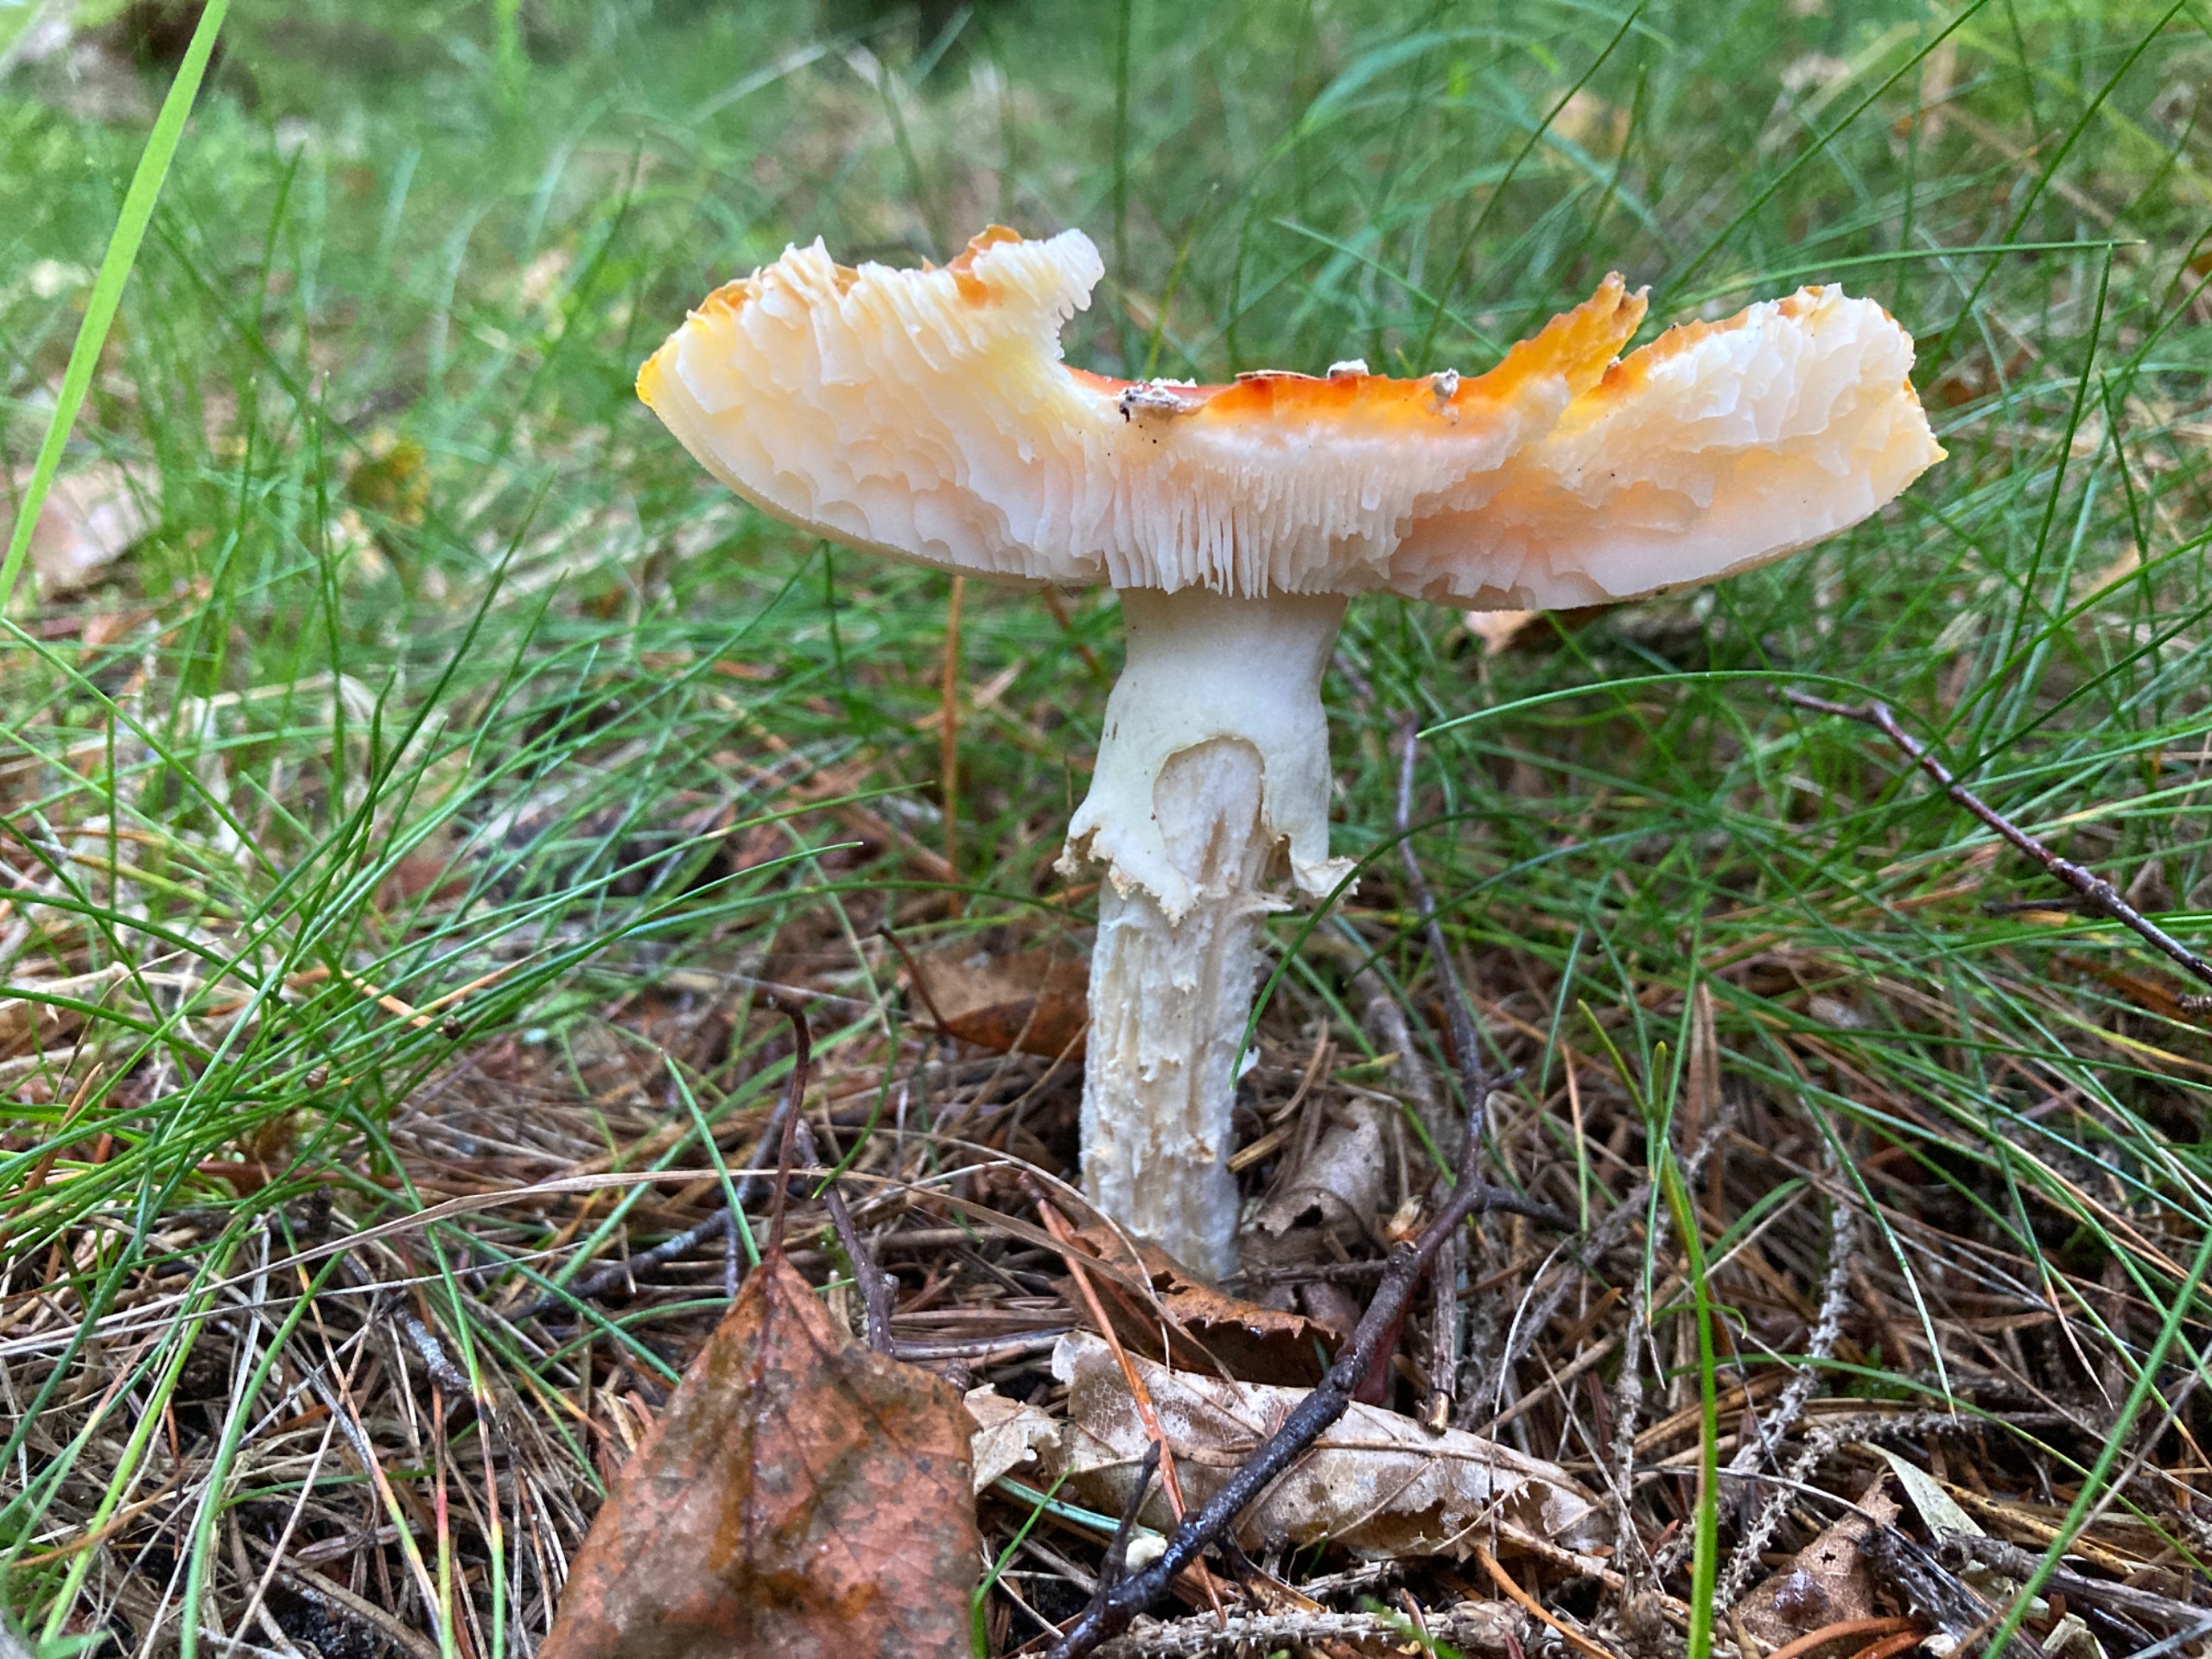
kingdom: Fungi
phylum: Basidiomycota
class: Agaricomycetes
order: Agaricales
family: Amanitaceae
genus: Amanita
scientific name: Amanita muscaria
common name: Rød fluesvamp
